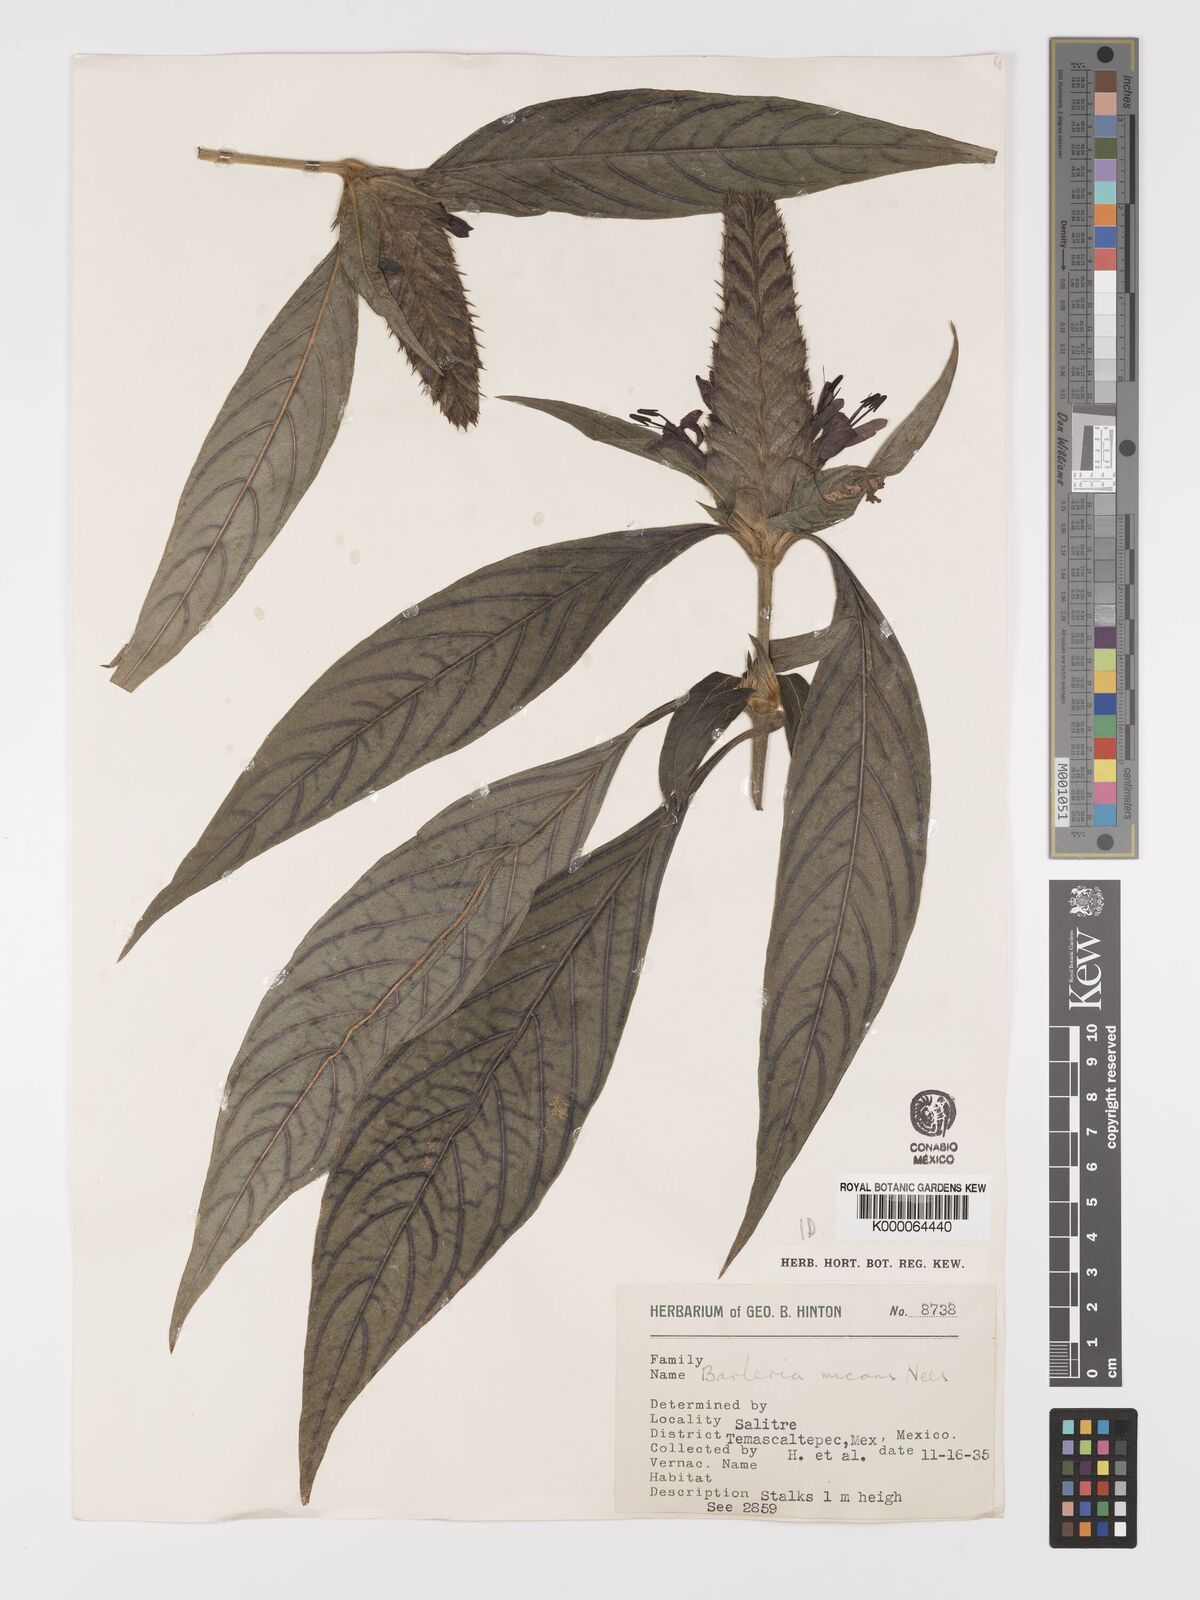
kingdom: Plantae
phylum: Tracheophyta
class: Magnoliopsida
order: Lamiales
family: Acanthaceae
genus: Barleria
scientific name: Barleria oenotheroides
